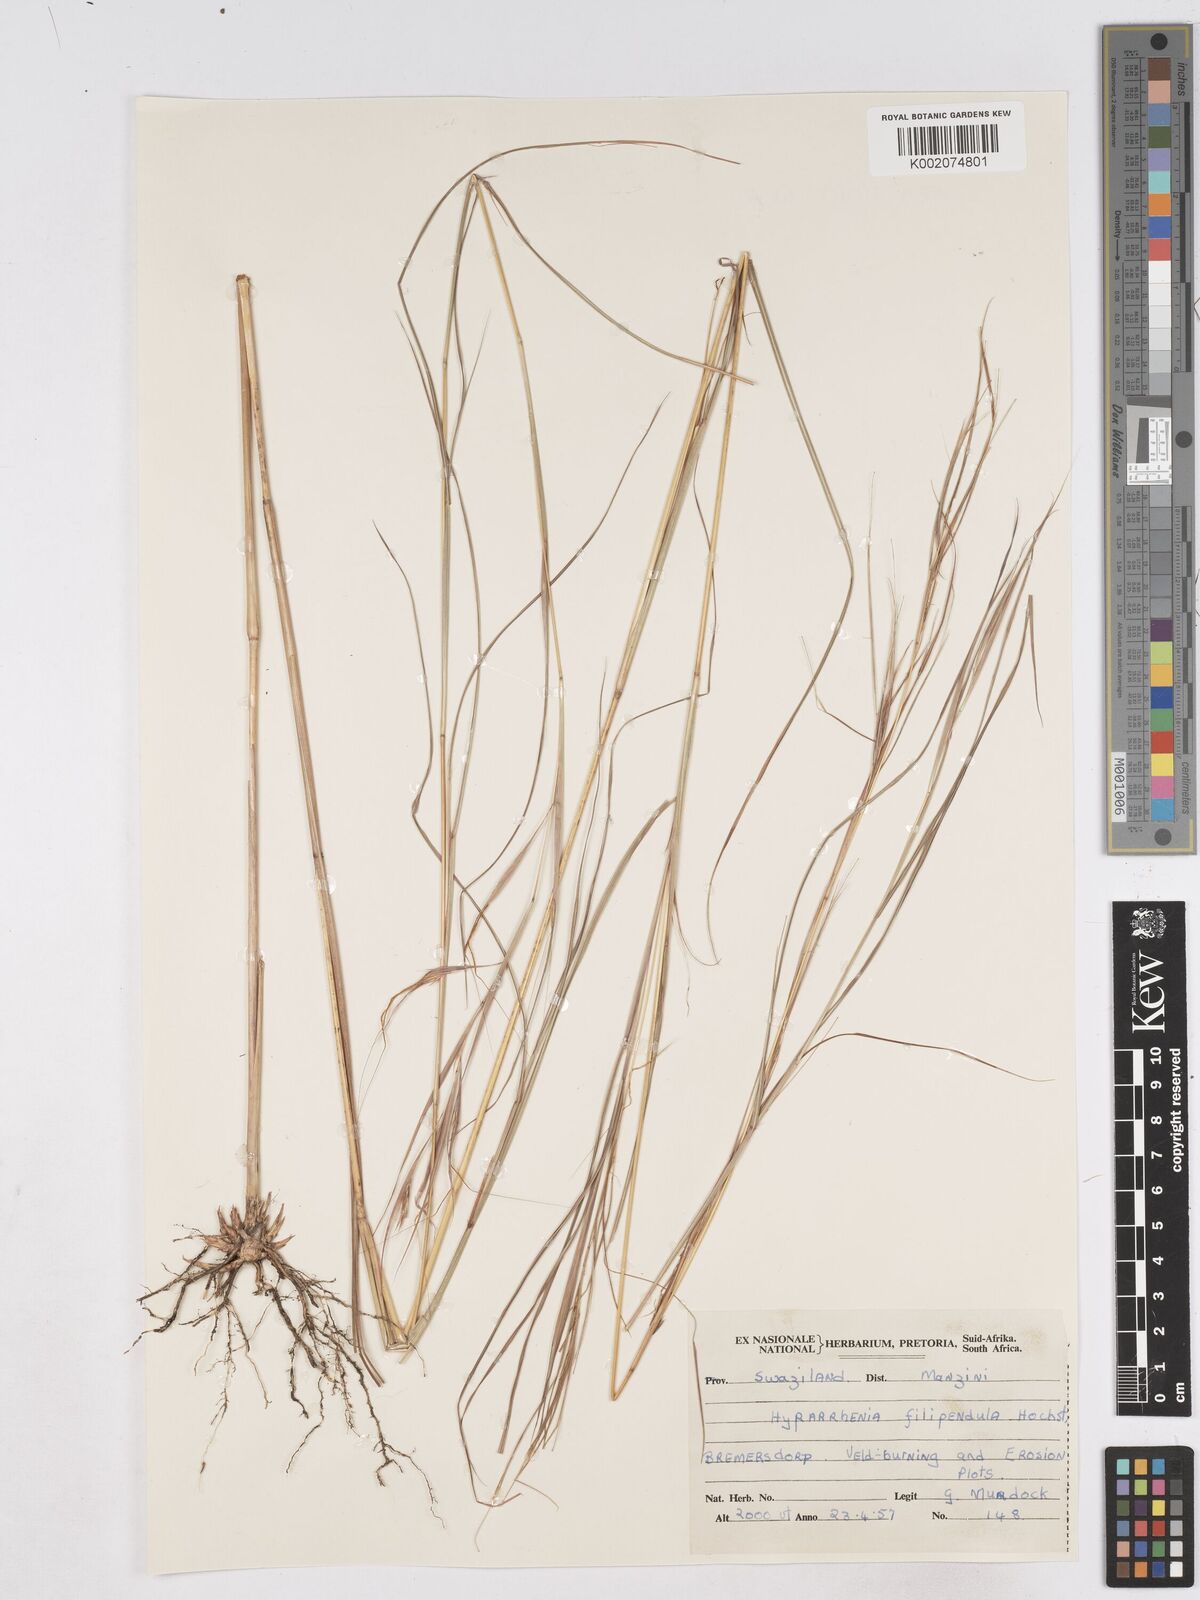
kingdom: Plantae
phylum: Tracheophyta
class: Liliopsida
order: Poales
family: Poaceae
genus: Hyparrhenia
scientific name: Hyparrhenia filipendula
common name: Tambookie grass
